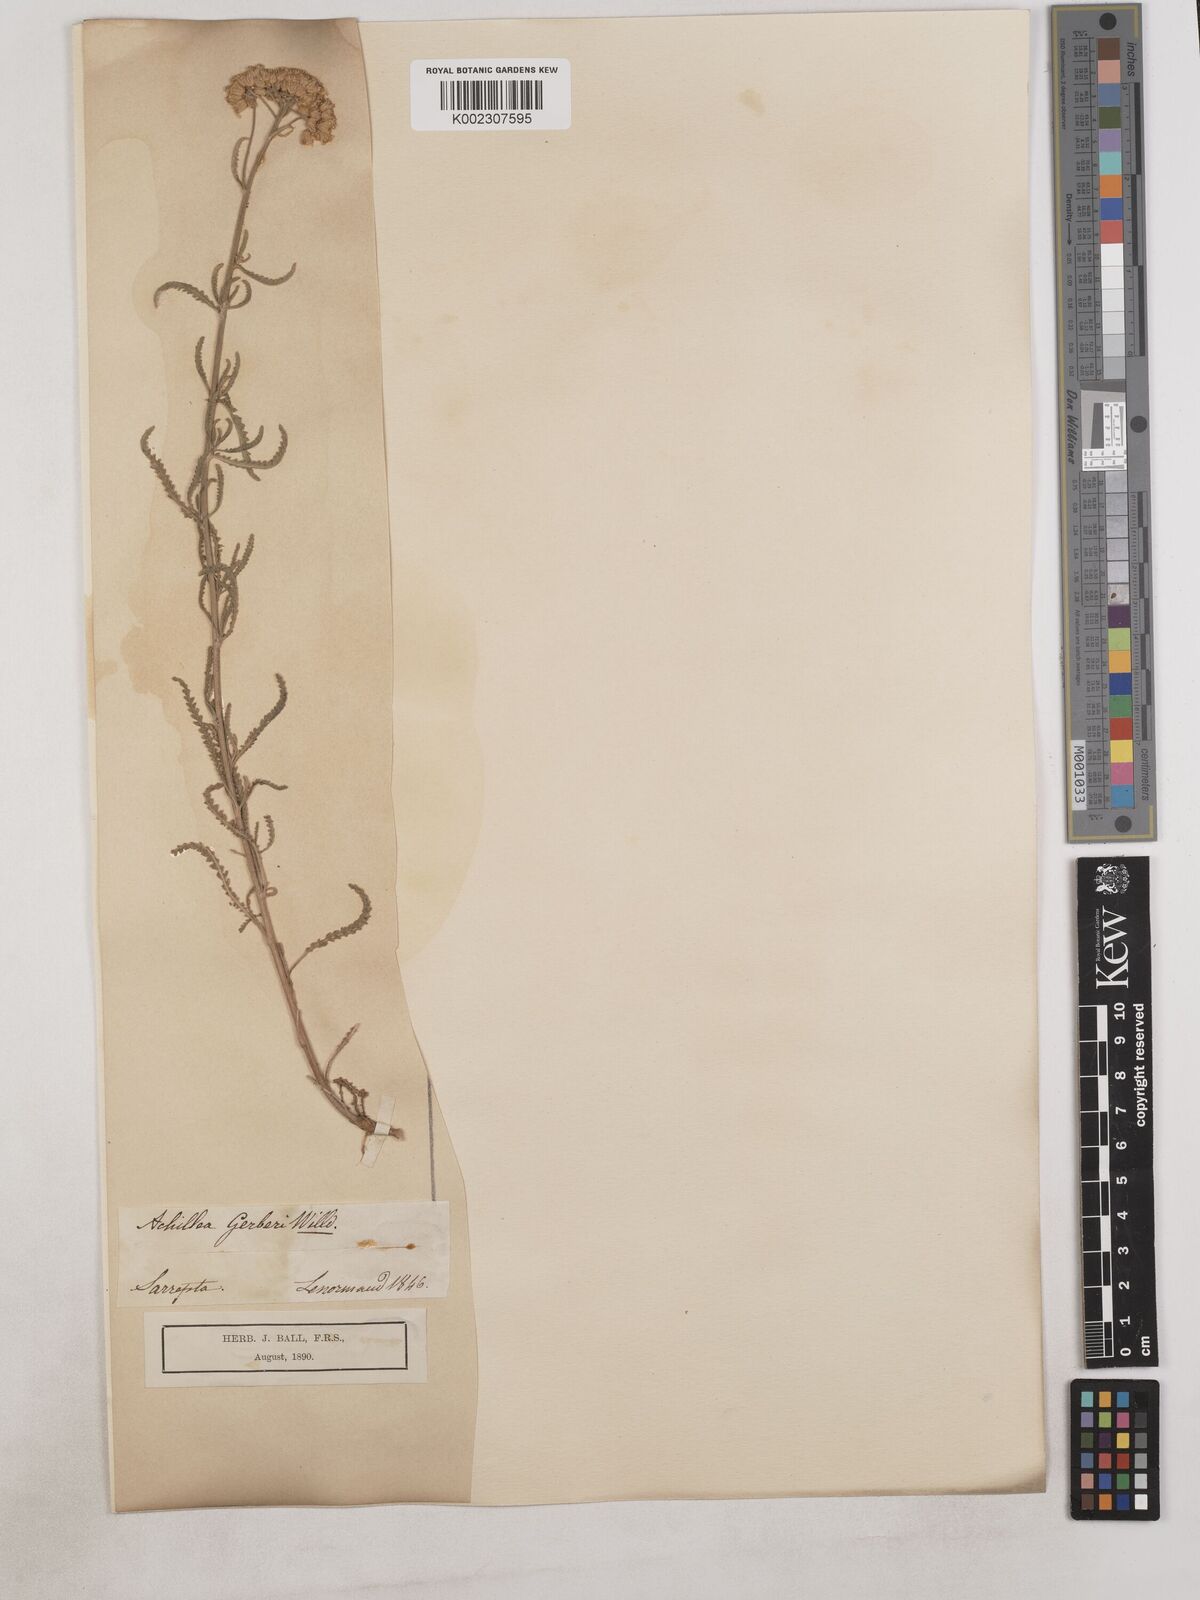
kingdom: Plantae
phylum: Tracheophyta
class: Magnoliopsida
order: Asterales
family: Asteraceae
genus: Achillea
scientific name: Achillea
